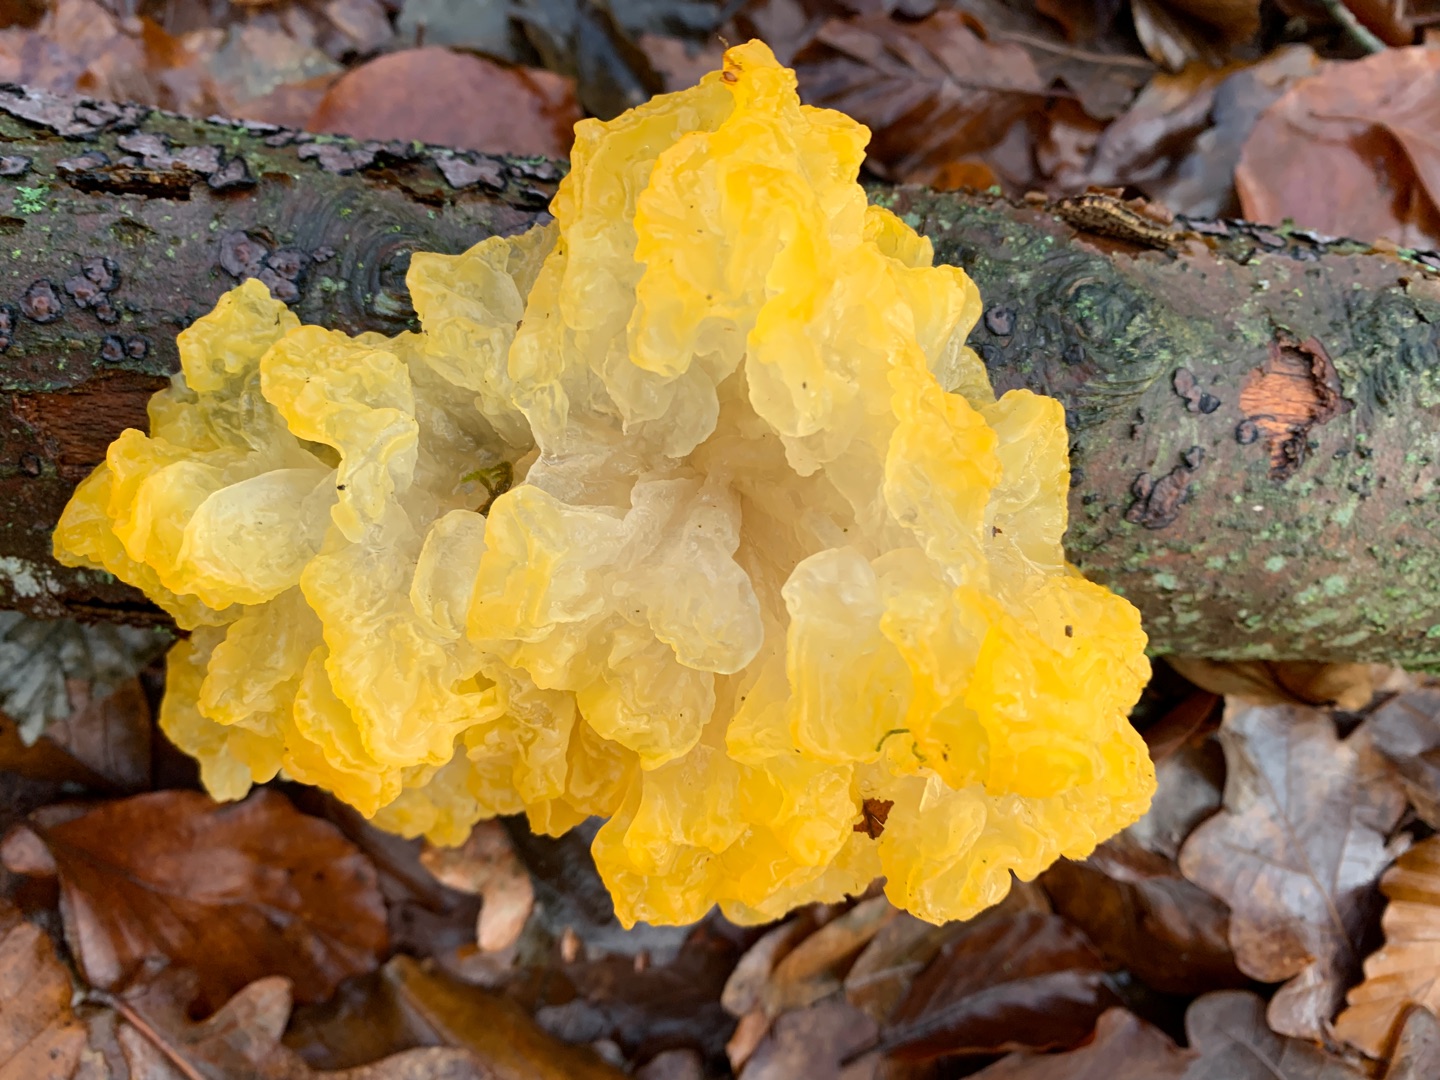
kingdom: Fungi
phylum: Basidiomycota
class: Tremellomycetes
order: Tremellales
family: Tremellaceae
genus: Tremella
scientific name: Tremella mesenterica
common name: Gul bævresvamp
